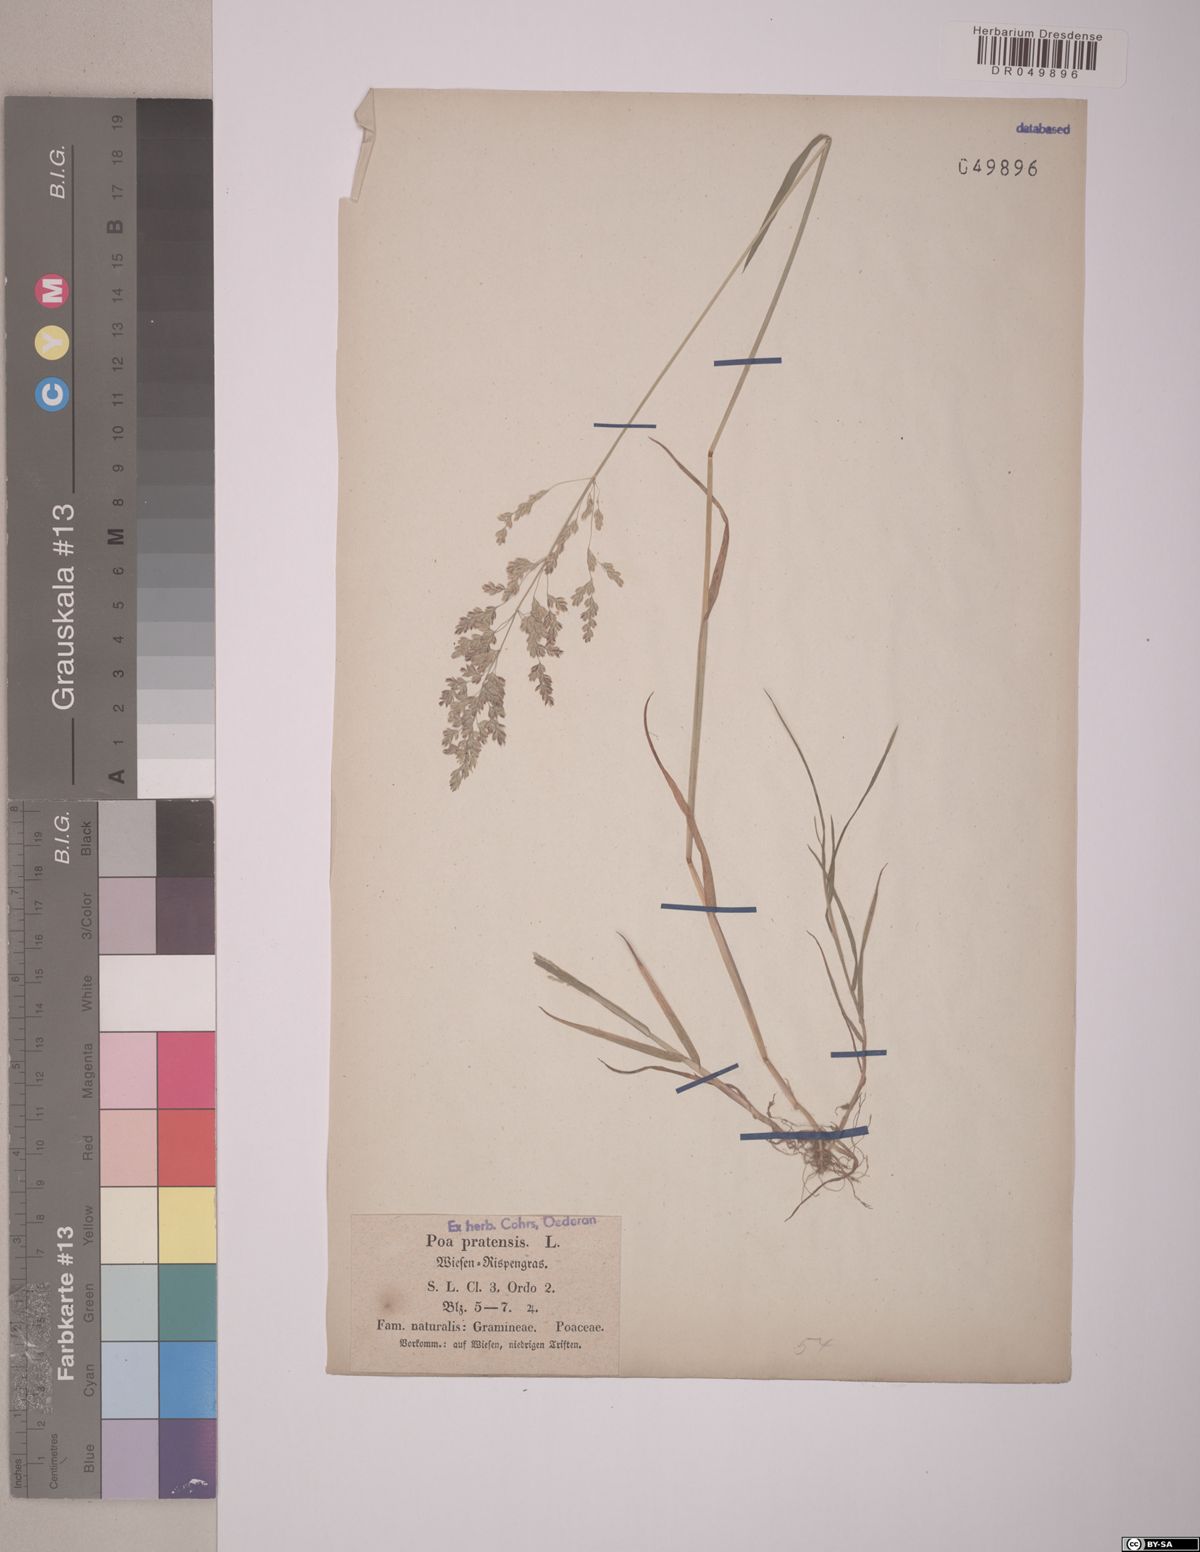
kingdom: Plantae
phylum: Tracheophyta
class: Liliopsida
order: Poales
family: Poaceae
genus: Poa
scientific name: Poa pratensis
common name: Kentucky bluegrass
